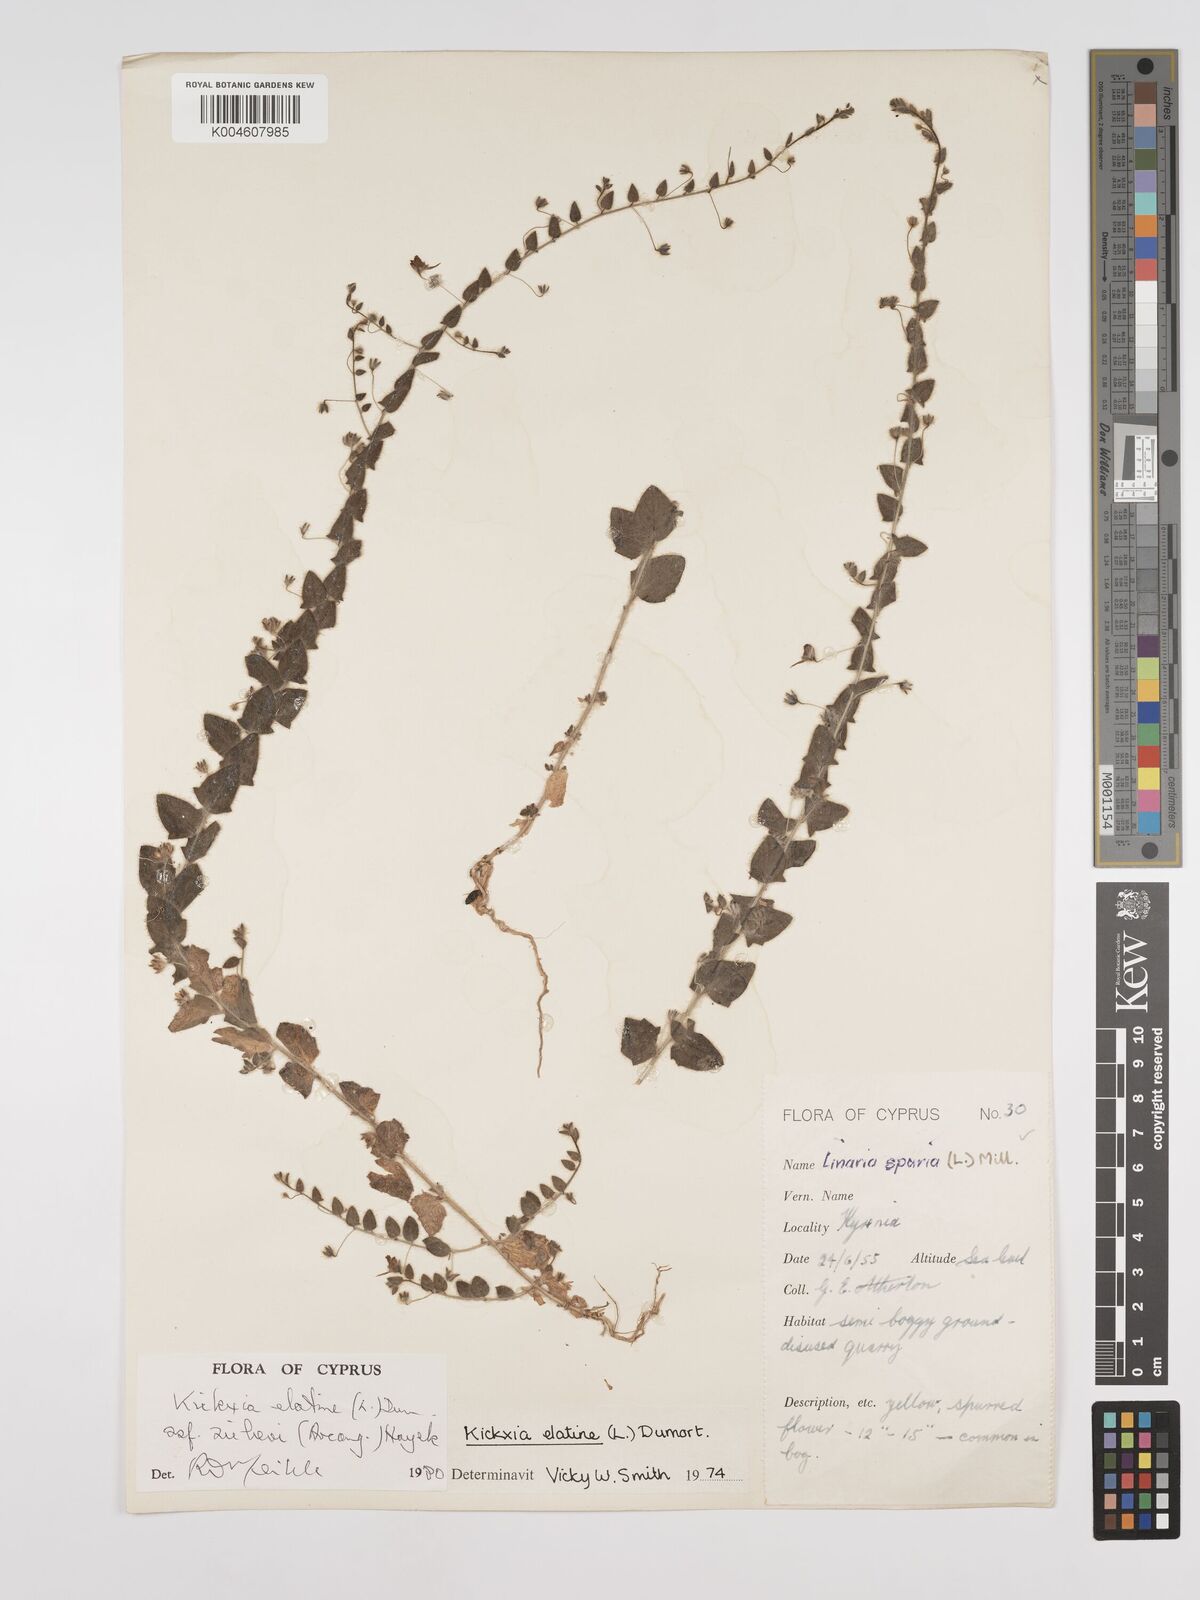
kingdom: Plantae
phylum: Tracheophyta
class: Magnoliopsida
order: Lamiales
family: Plantaginaceae
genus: Kickxia
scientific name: Kickxia elatine
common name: Sharp-leaved fluellen
